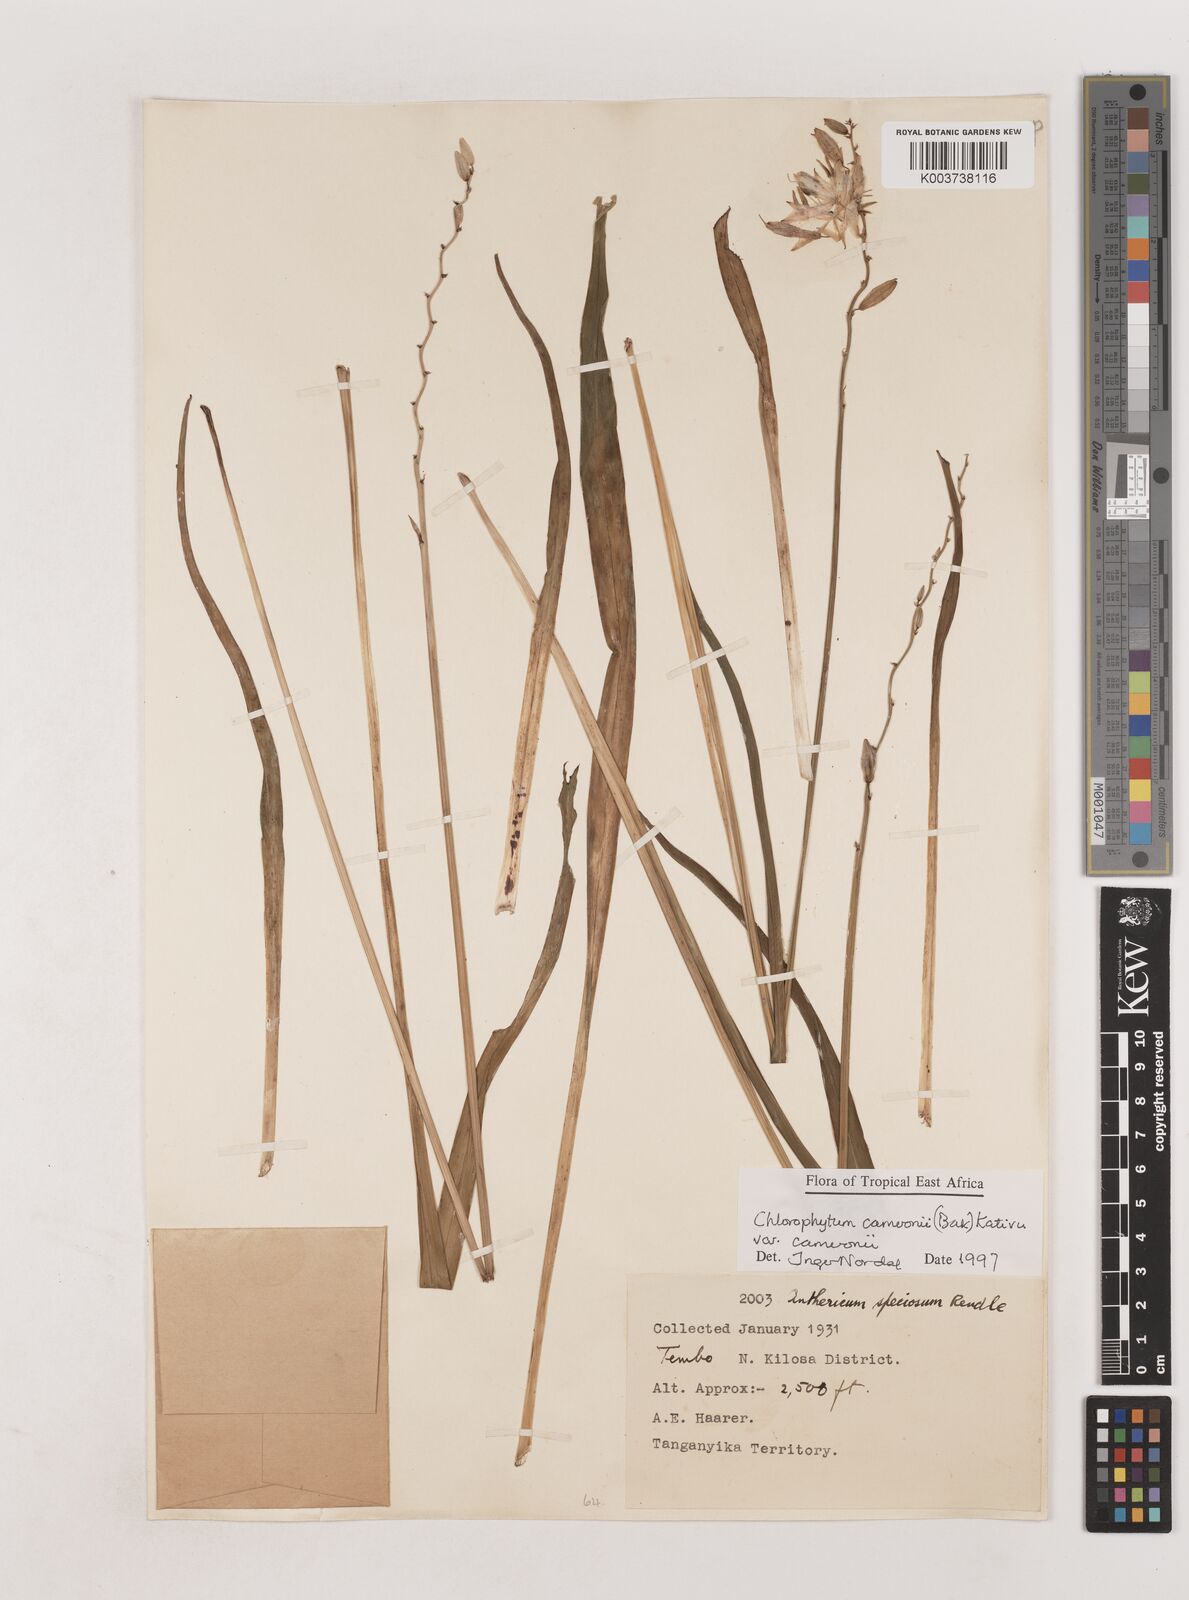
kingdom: Plantae
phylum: Tracheophyta
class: Liliopsida
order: Asparagales
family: Asparagaceae
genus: Chlorophytum
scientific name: Chlorophytum cameronii
